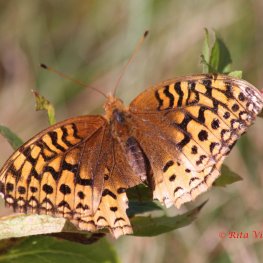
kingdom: Animalia
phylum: Arthropoda
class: Insecta
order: Lepidoptera
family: Nymphalidae
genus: Speyeria
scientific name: Speyeria cybele
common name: Great Spangled Fritillary
